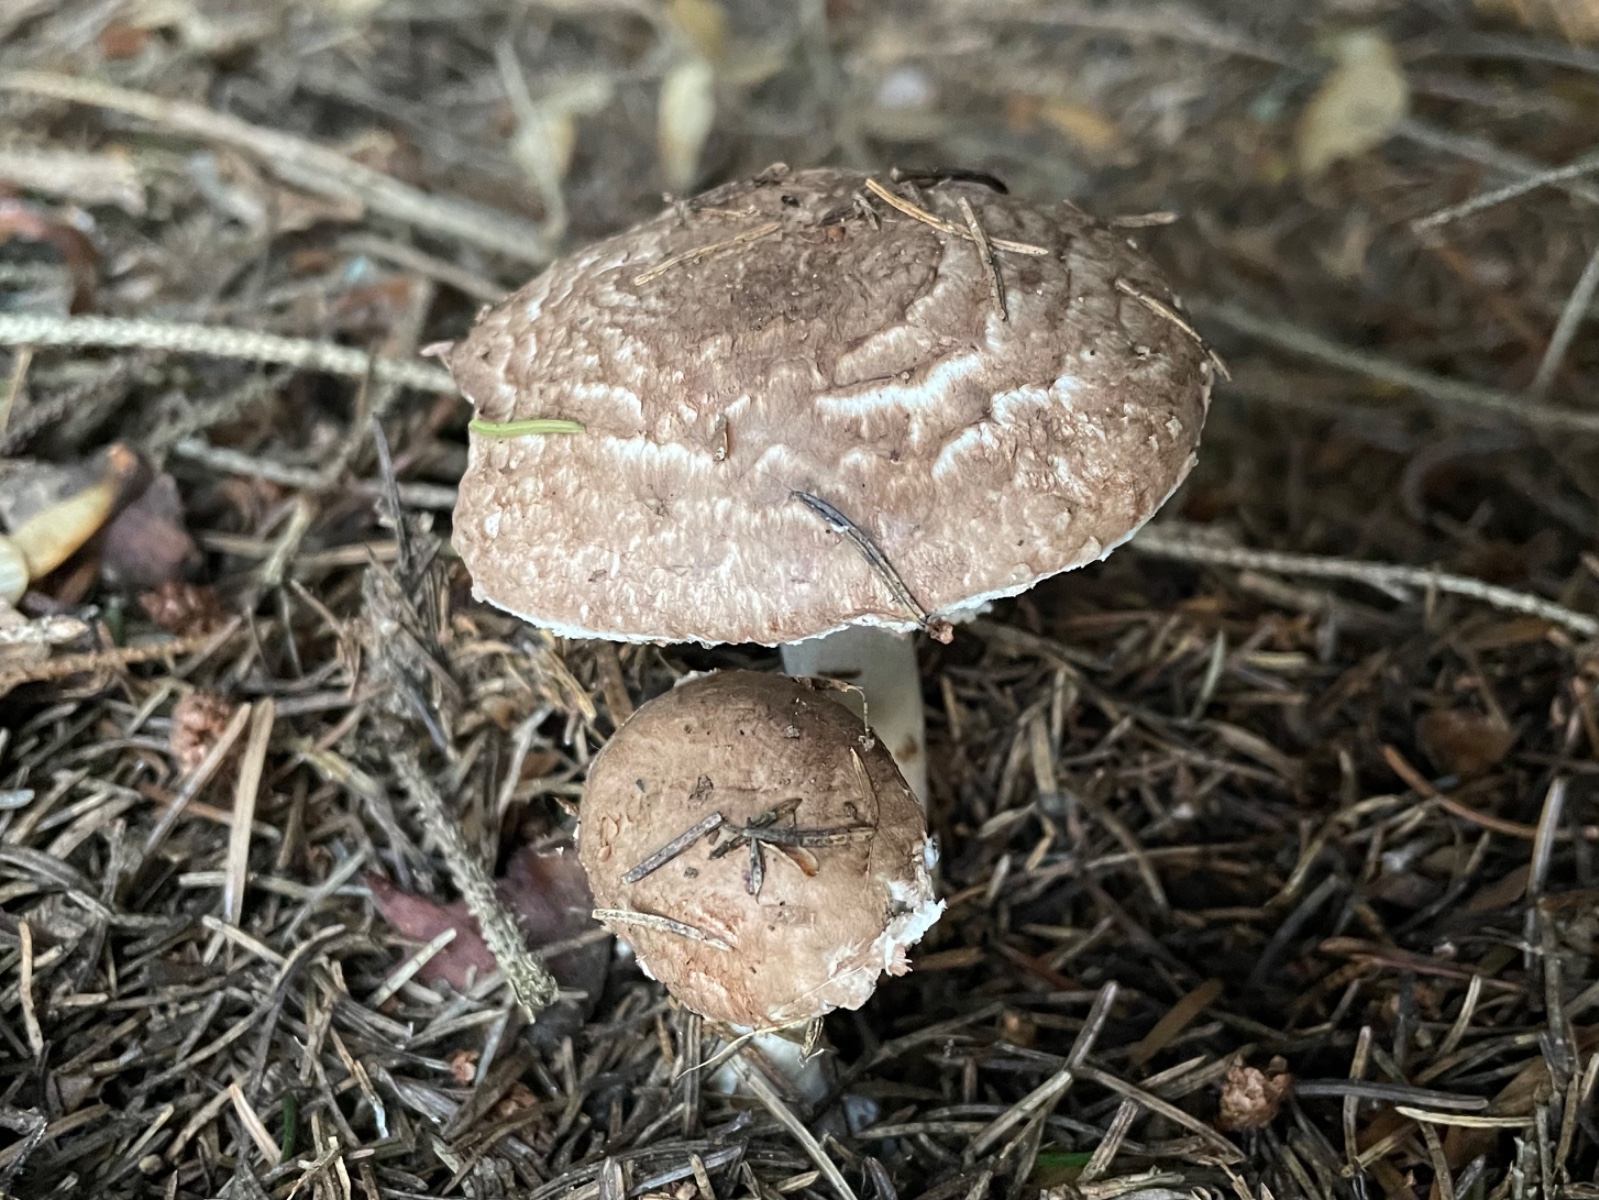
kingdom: Fungi
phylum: Basidiomycota
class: Agaricomycetes
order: Agaricales
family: Agaricaceae
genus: Agaricus
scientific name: Agaricus
